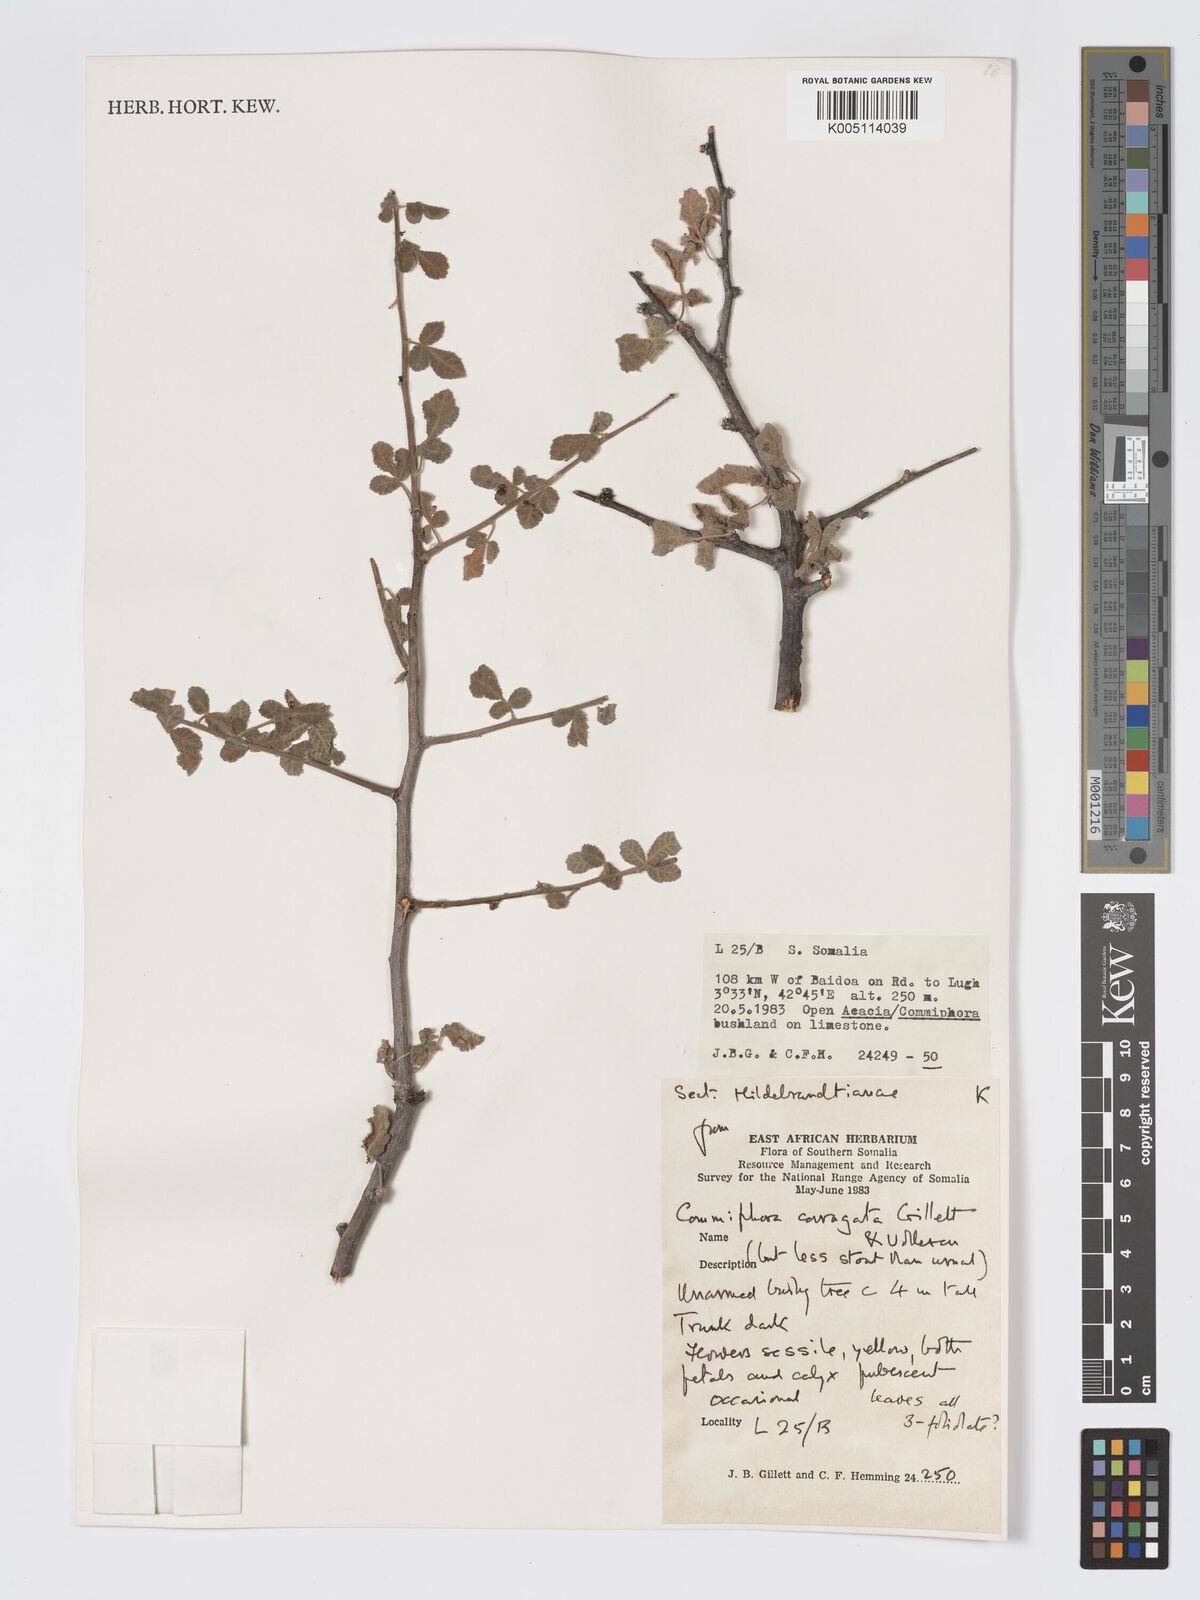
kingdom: Plantae
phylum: Tracheophyta
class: Magnoliopsida
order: Sapindales
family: Burseraceae
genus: Commiphora
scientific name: Commiphora corrugata
